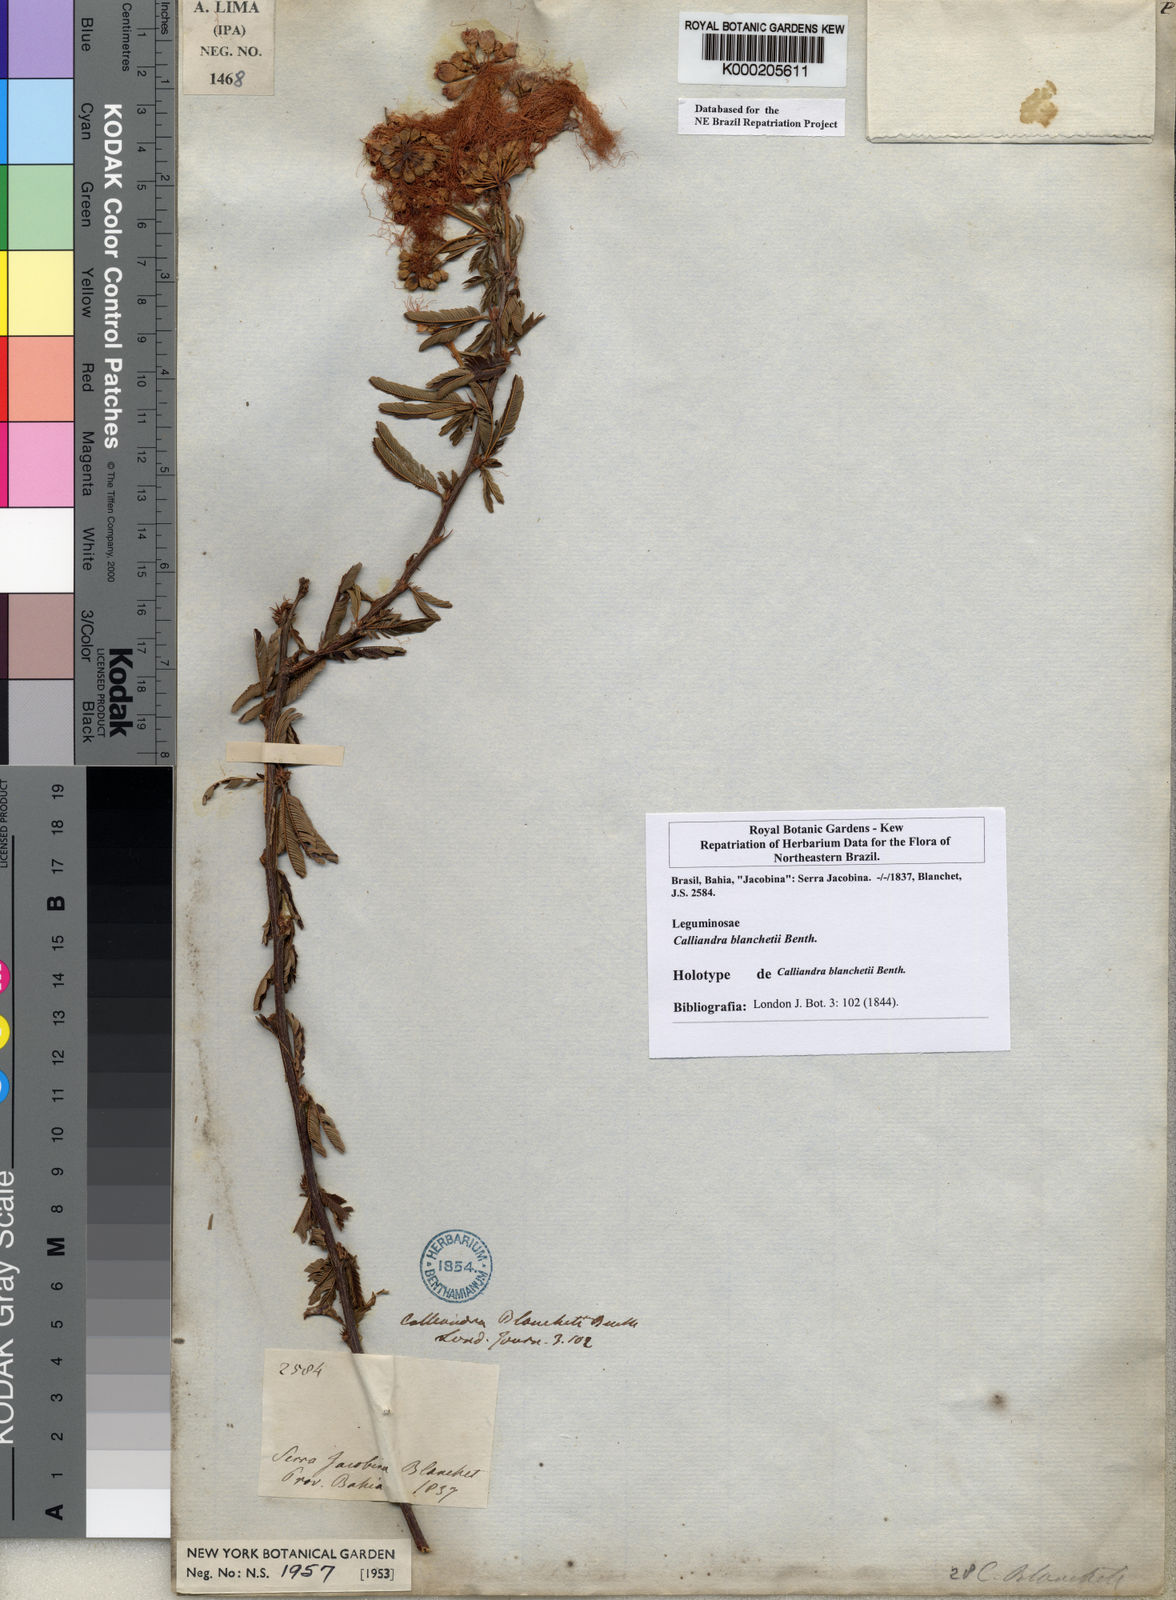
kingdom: Plantae
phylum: Tracheophyta
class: Magnoliopsida
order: Fabales
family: Fabaceae
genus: Calliandra
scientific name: Calliandra blanchetii
